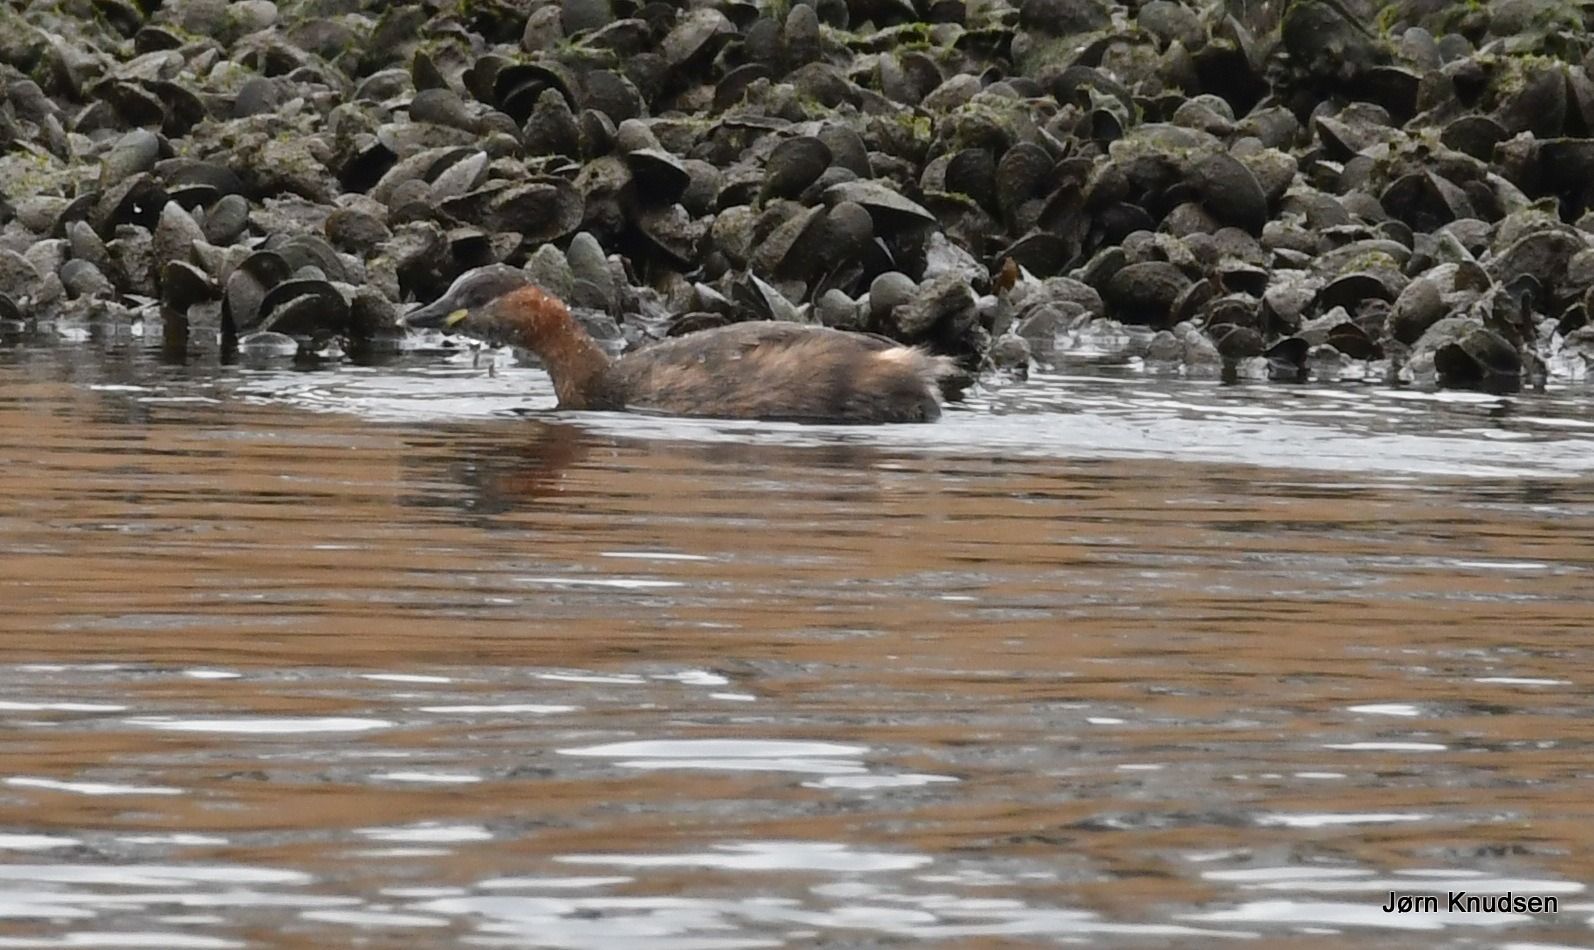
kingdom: Animalia
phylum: Chordata
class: Aves
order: Podicipediformes
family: Podicipedidae
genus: Tachybaptus
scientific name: Tachybaptus ruficollis
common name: Lille lappedykker
